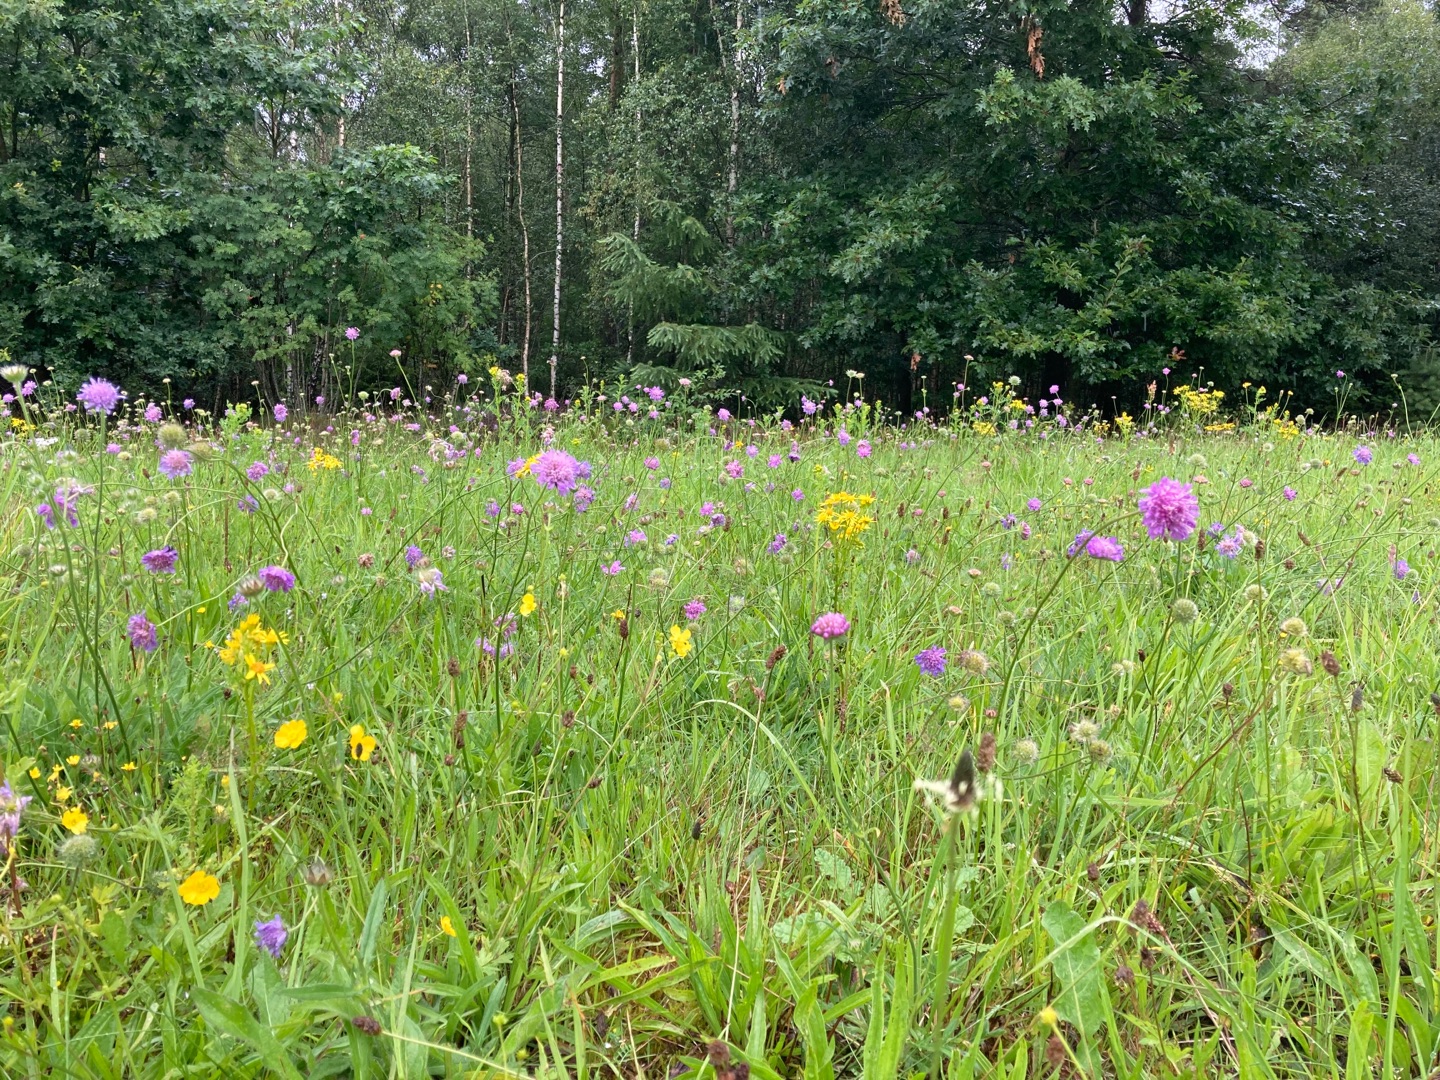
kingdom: Plantae
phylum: Tracheophyta
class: Magnoliopsida
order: Dipsacales
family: Caprifoliaceae
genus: Knautia
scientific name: Knautia arvensis
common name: Blåhat
